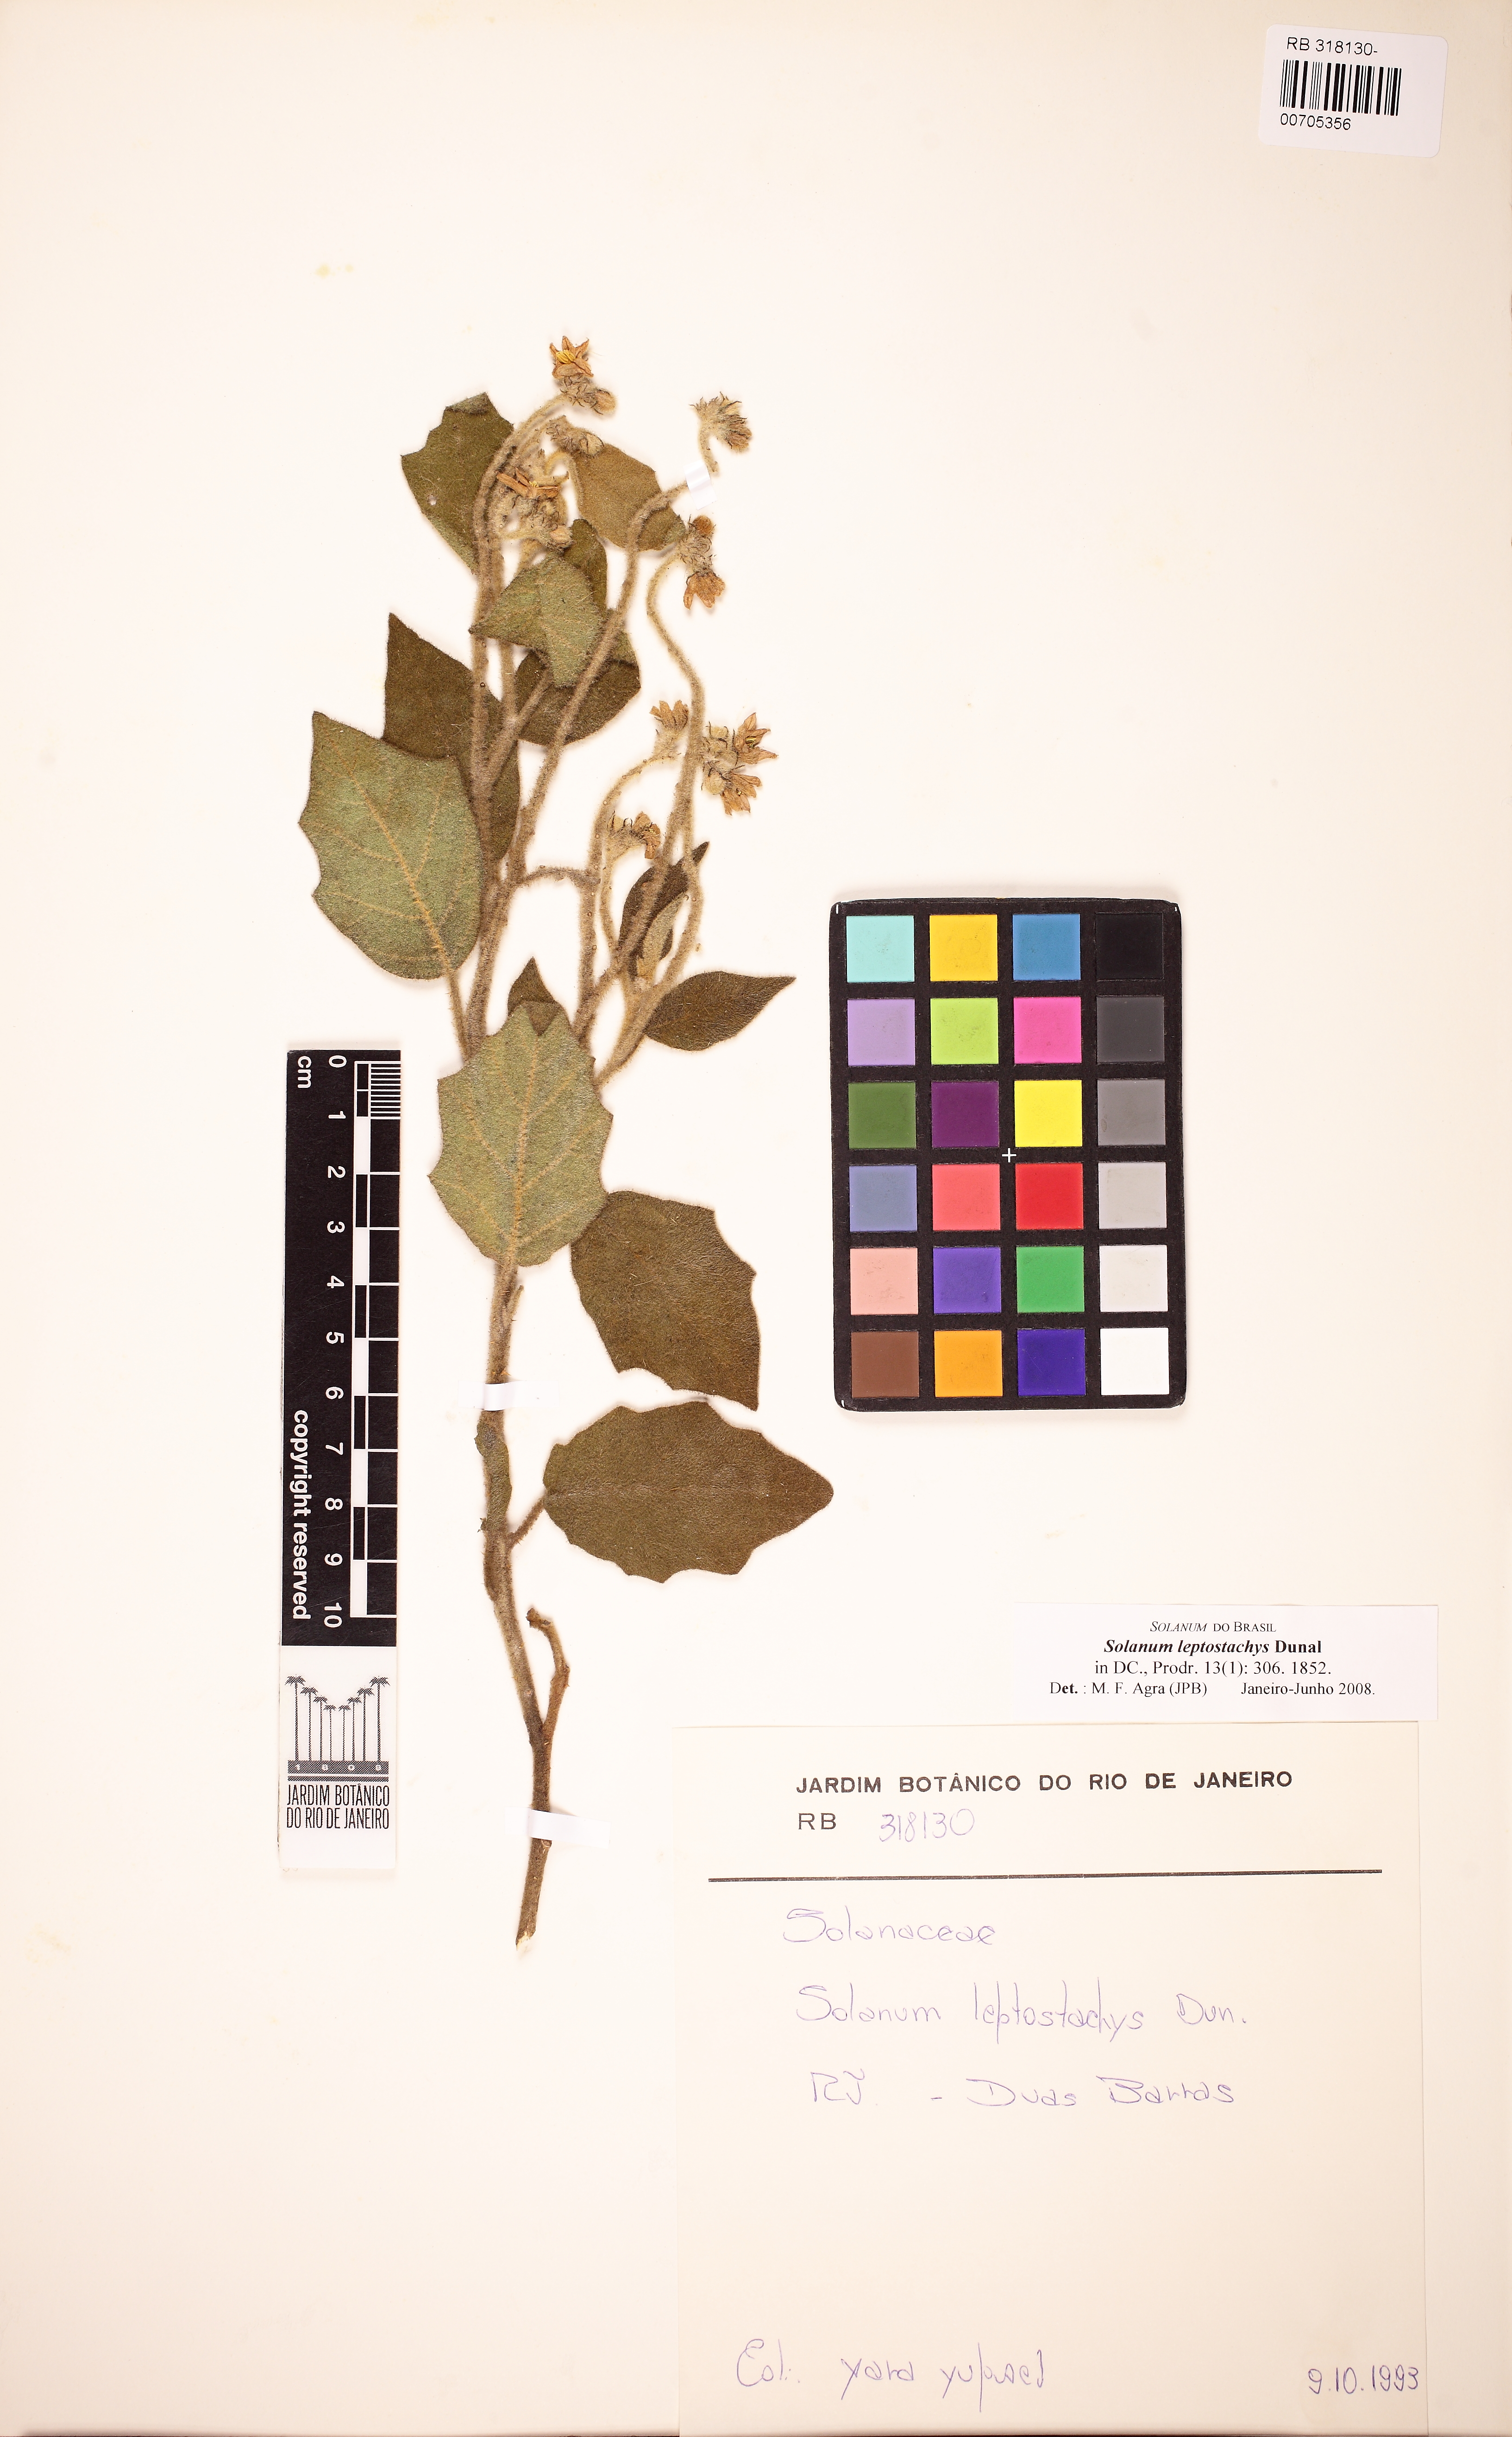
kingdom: Plantae
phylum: Tracheophyta
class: Magnoliopsida
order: Solanales
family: Solanaceae
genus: Solanum
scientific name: Solanum leptostachys
